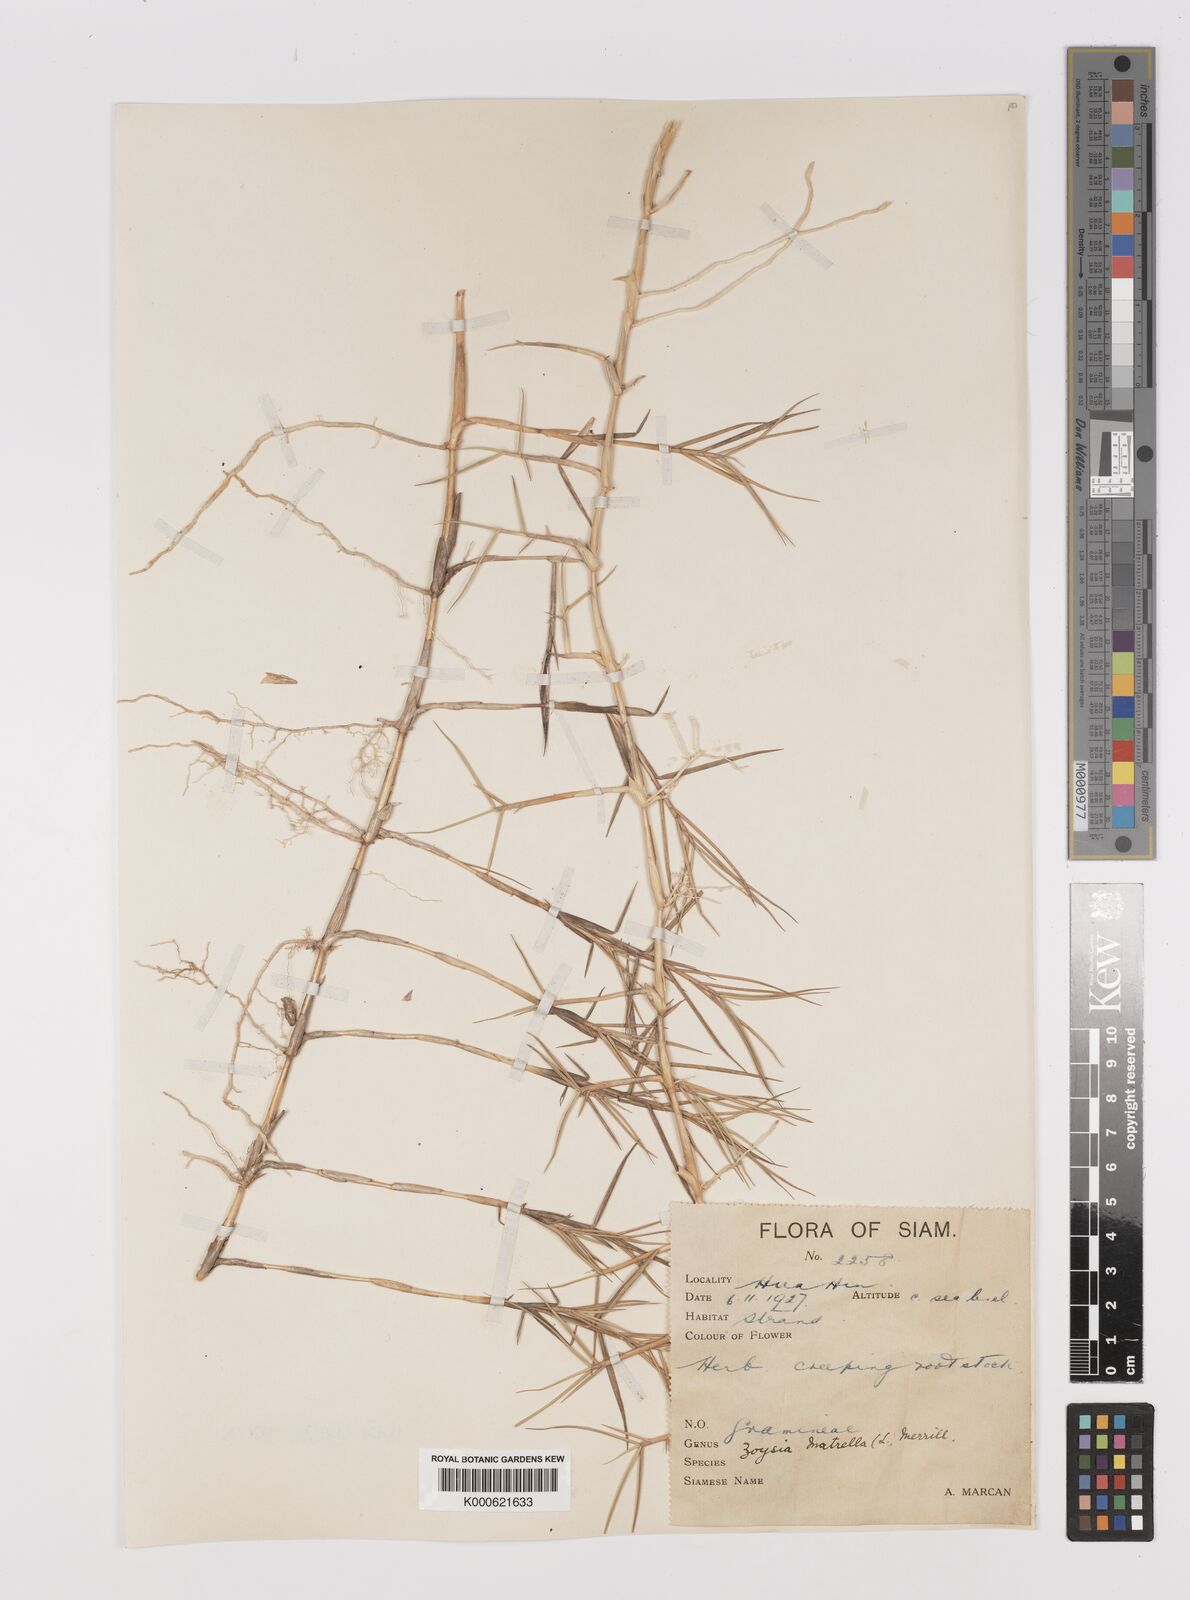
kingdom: Plantae
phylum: Tracheophyta
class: Liliopsida
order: Poales
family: Poaceae
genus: Zoysia
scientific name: Zoysia matrella
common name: Manila grass
